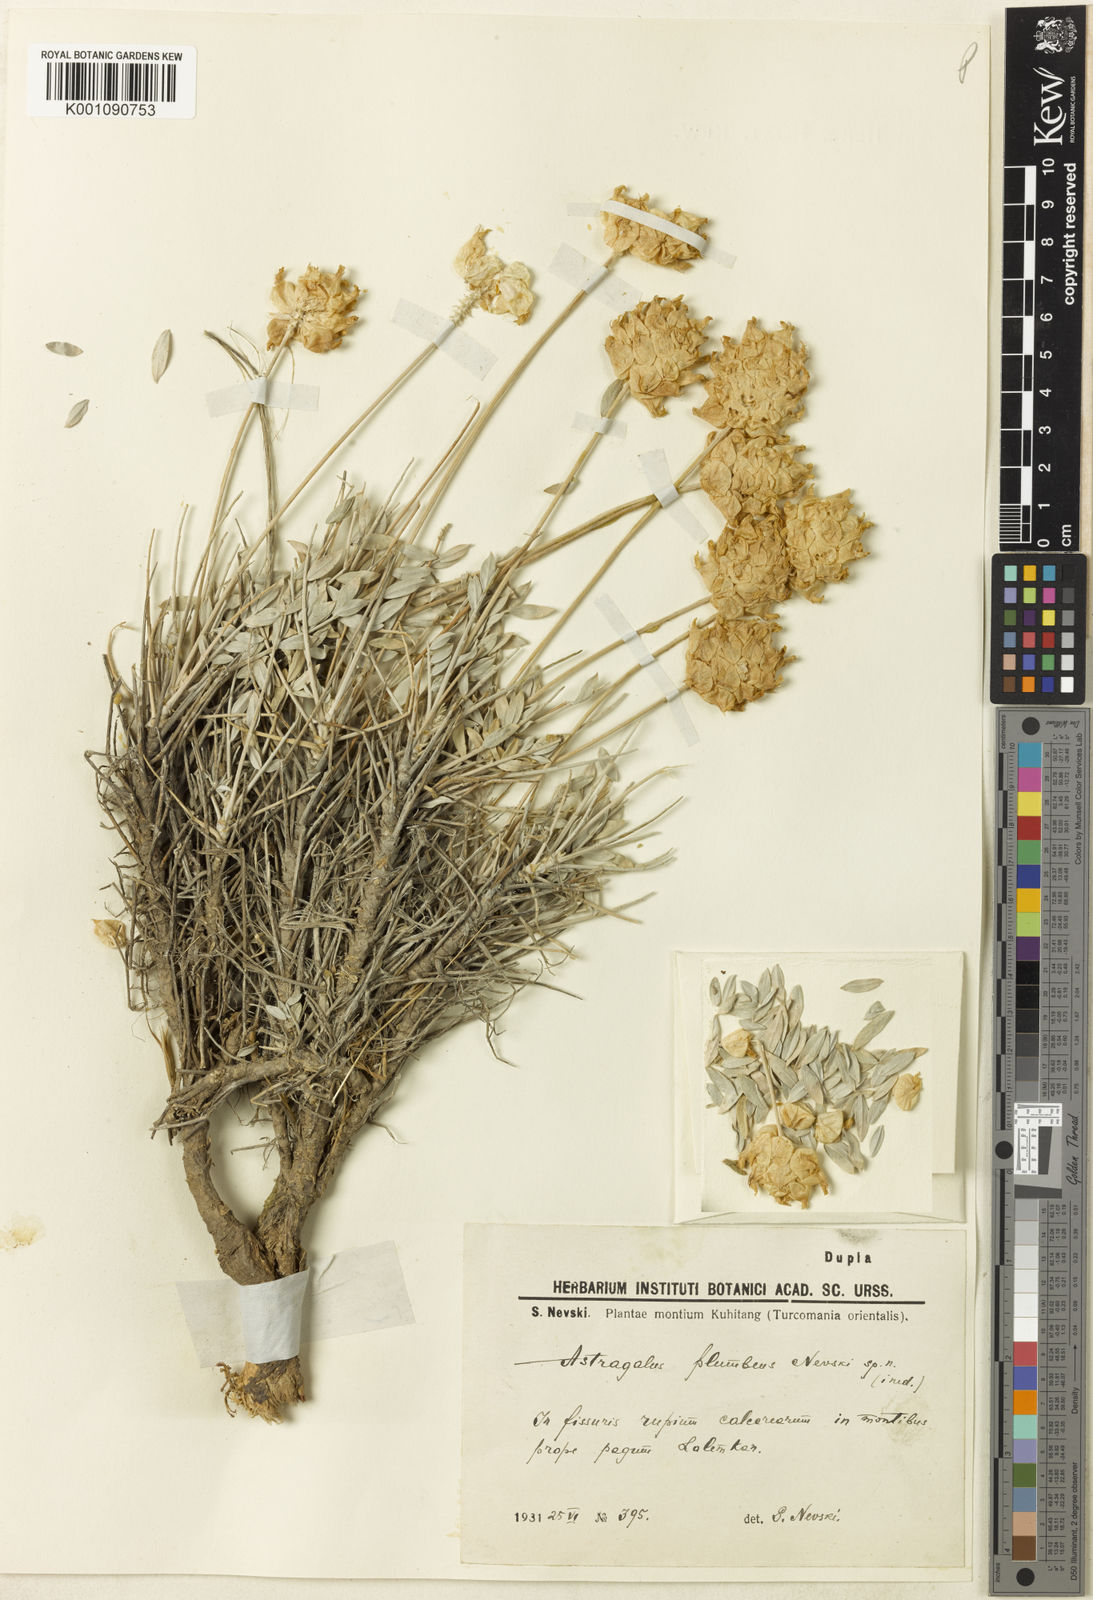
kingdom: Plantae
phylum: Tracheophyta
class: Magnoliopsida
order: Fabales
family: Fabaceae
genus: Astragalus
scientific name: Astragalus
